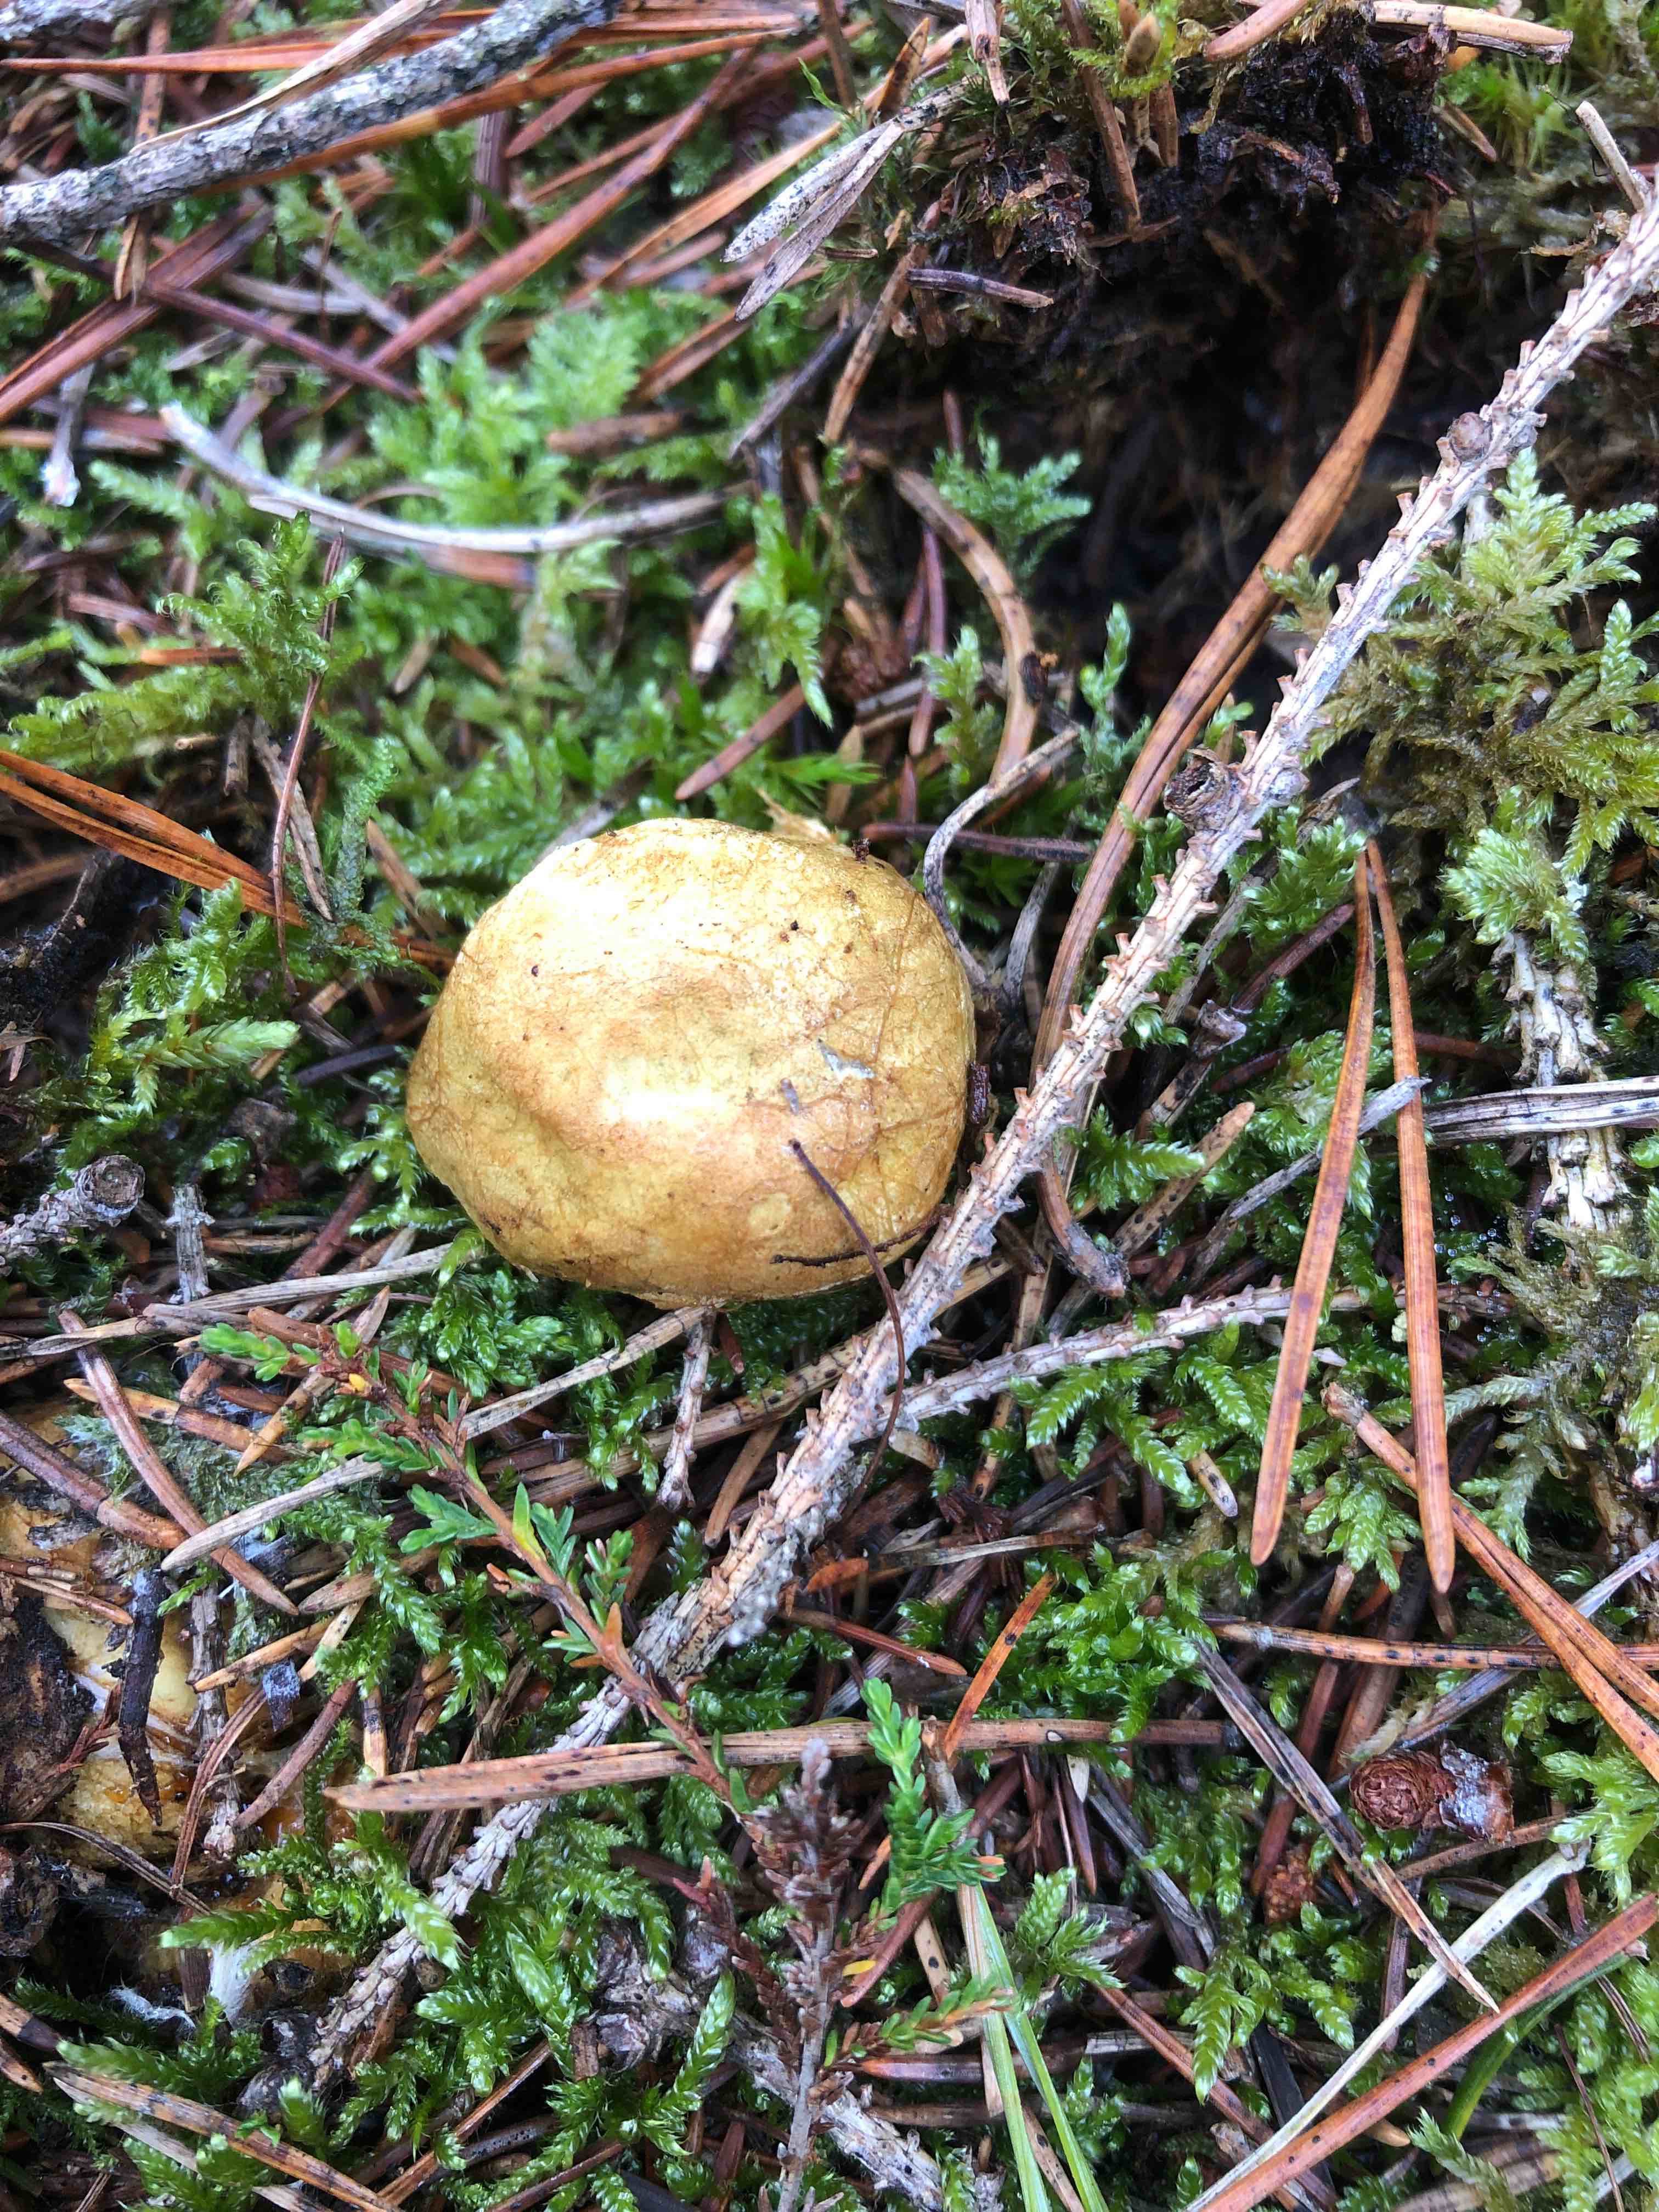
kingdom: Fungi
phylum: Basidiomycota
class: Agaricomycetes
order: Boletales
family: Rhizopogonaceae
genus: Rhizopogon
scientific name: Rhizopogon obtextus
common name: gul skægtrøffel
